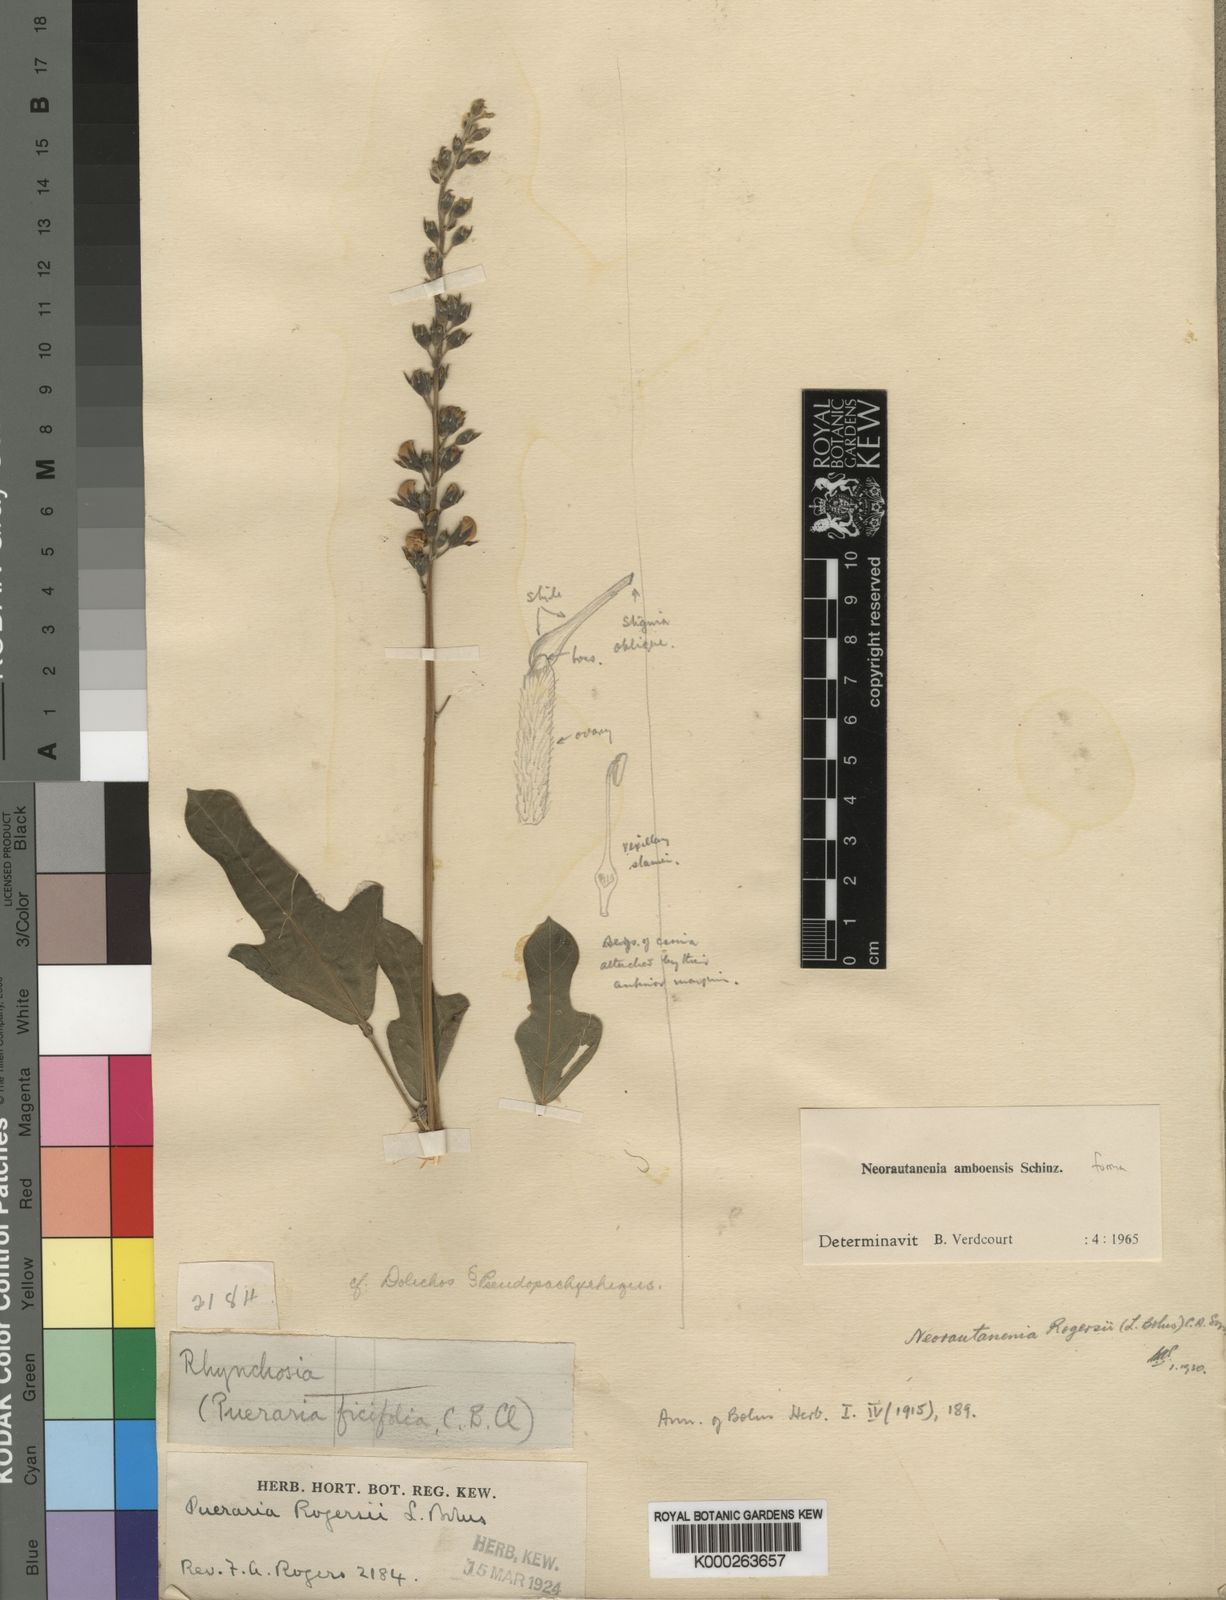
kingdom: Plantae
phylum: Tracheophyta
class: Magnoliopsida
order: Fabales
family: Fabaceae
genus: Neorautanenia
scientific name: Neorautanenia mitis
